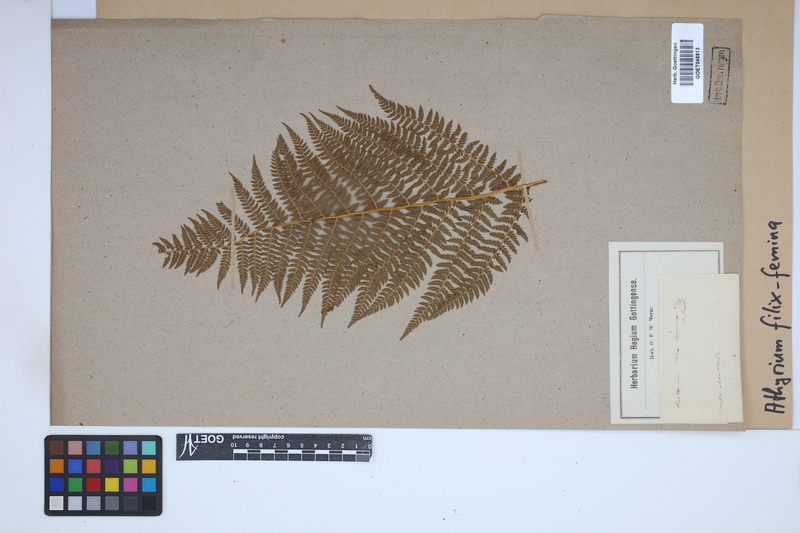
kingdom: Plantae
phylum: Tracheophyta
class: Polypodiopsida
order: Polypodiales
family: Athyriaceae
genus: Athyrium
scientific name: Athyrium filix-femina
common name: Lady fern
